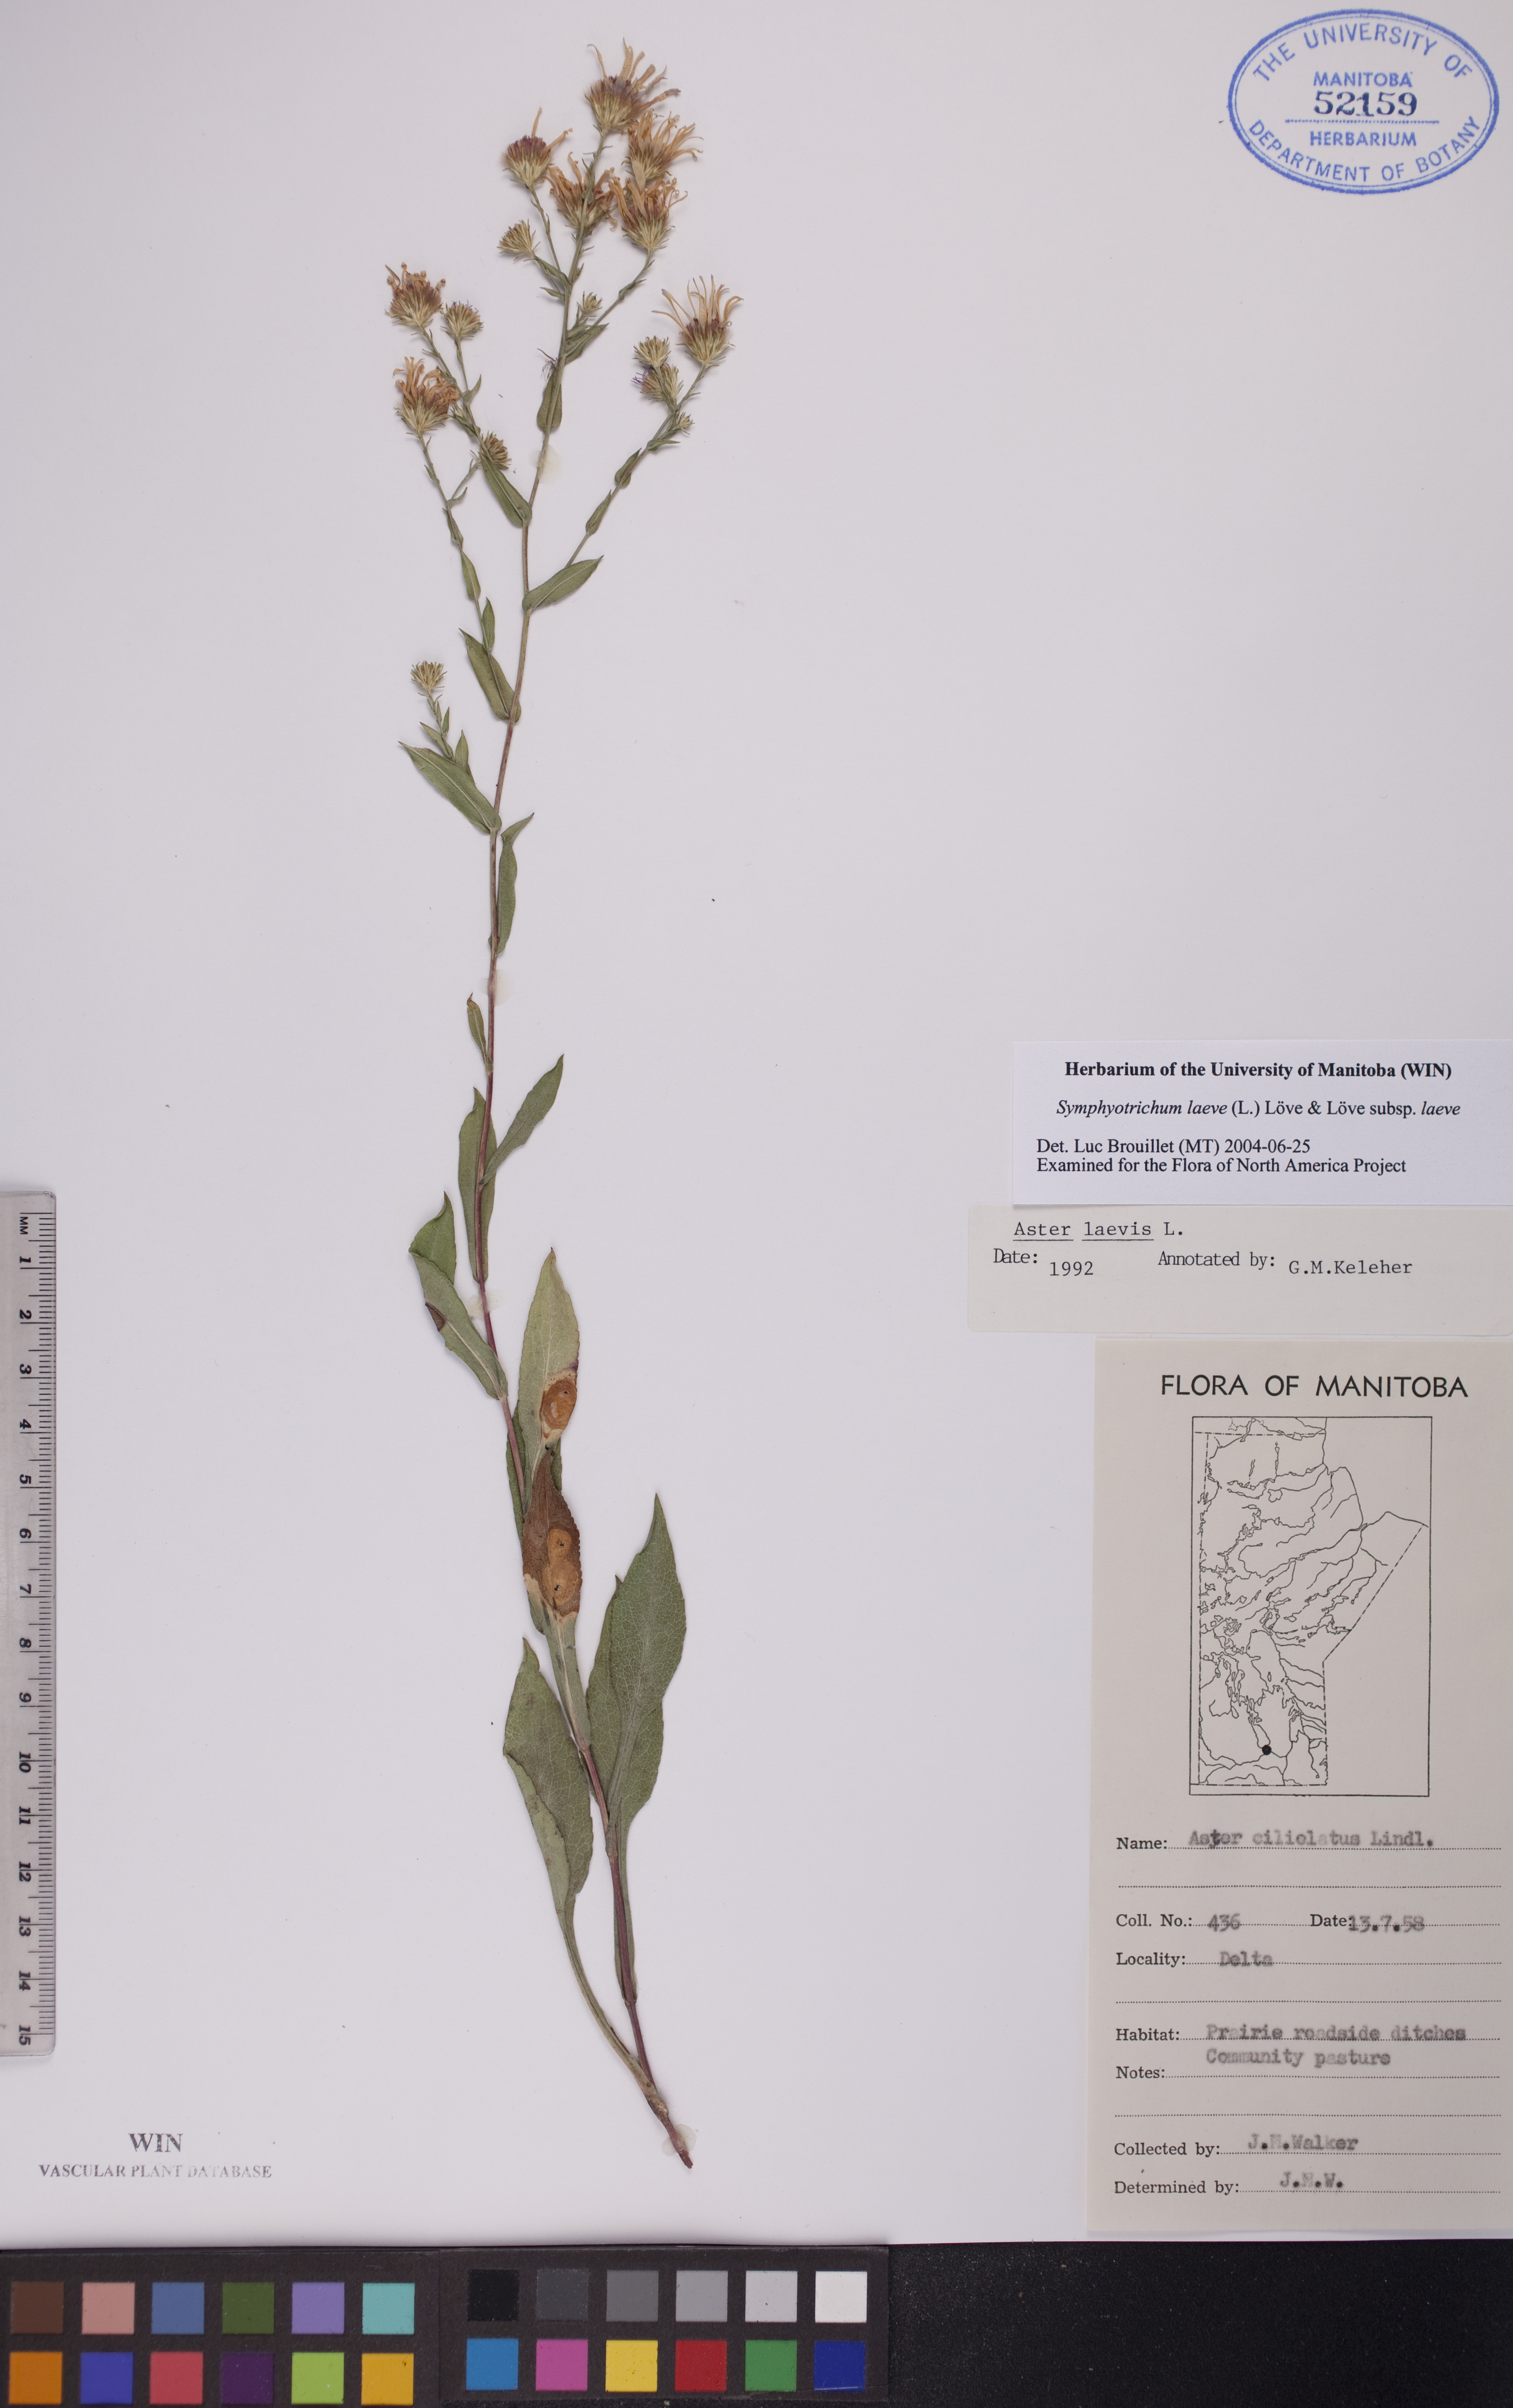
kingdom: Plantae
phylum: Tracheophyta
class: Magnoliopsida
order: Asterales
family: Asteraceae
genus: Symphyotrichum
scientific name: Symphyotrichum laeve
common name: Glaucous aster
